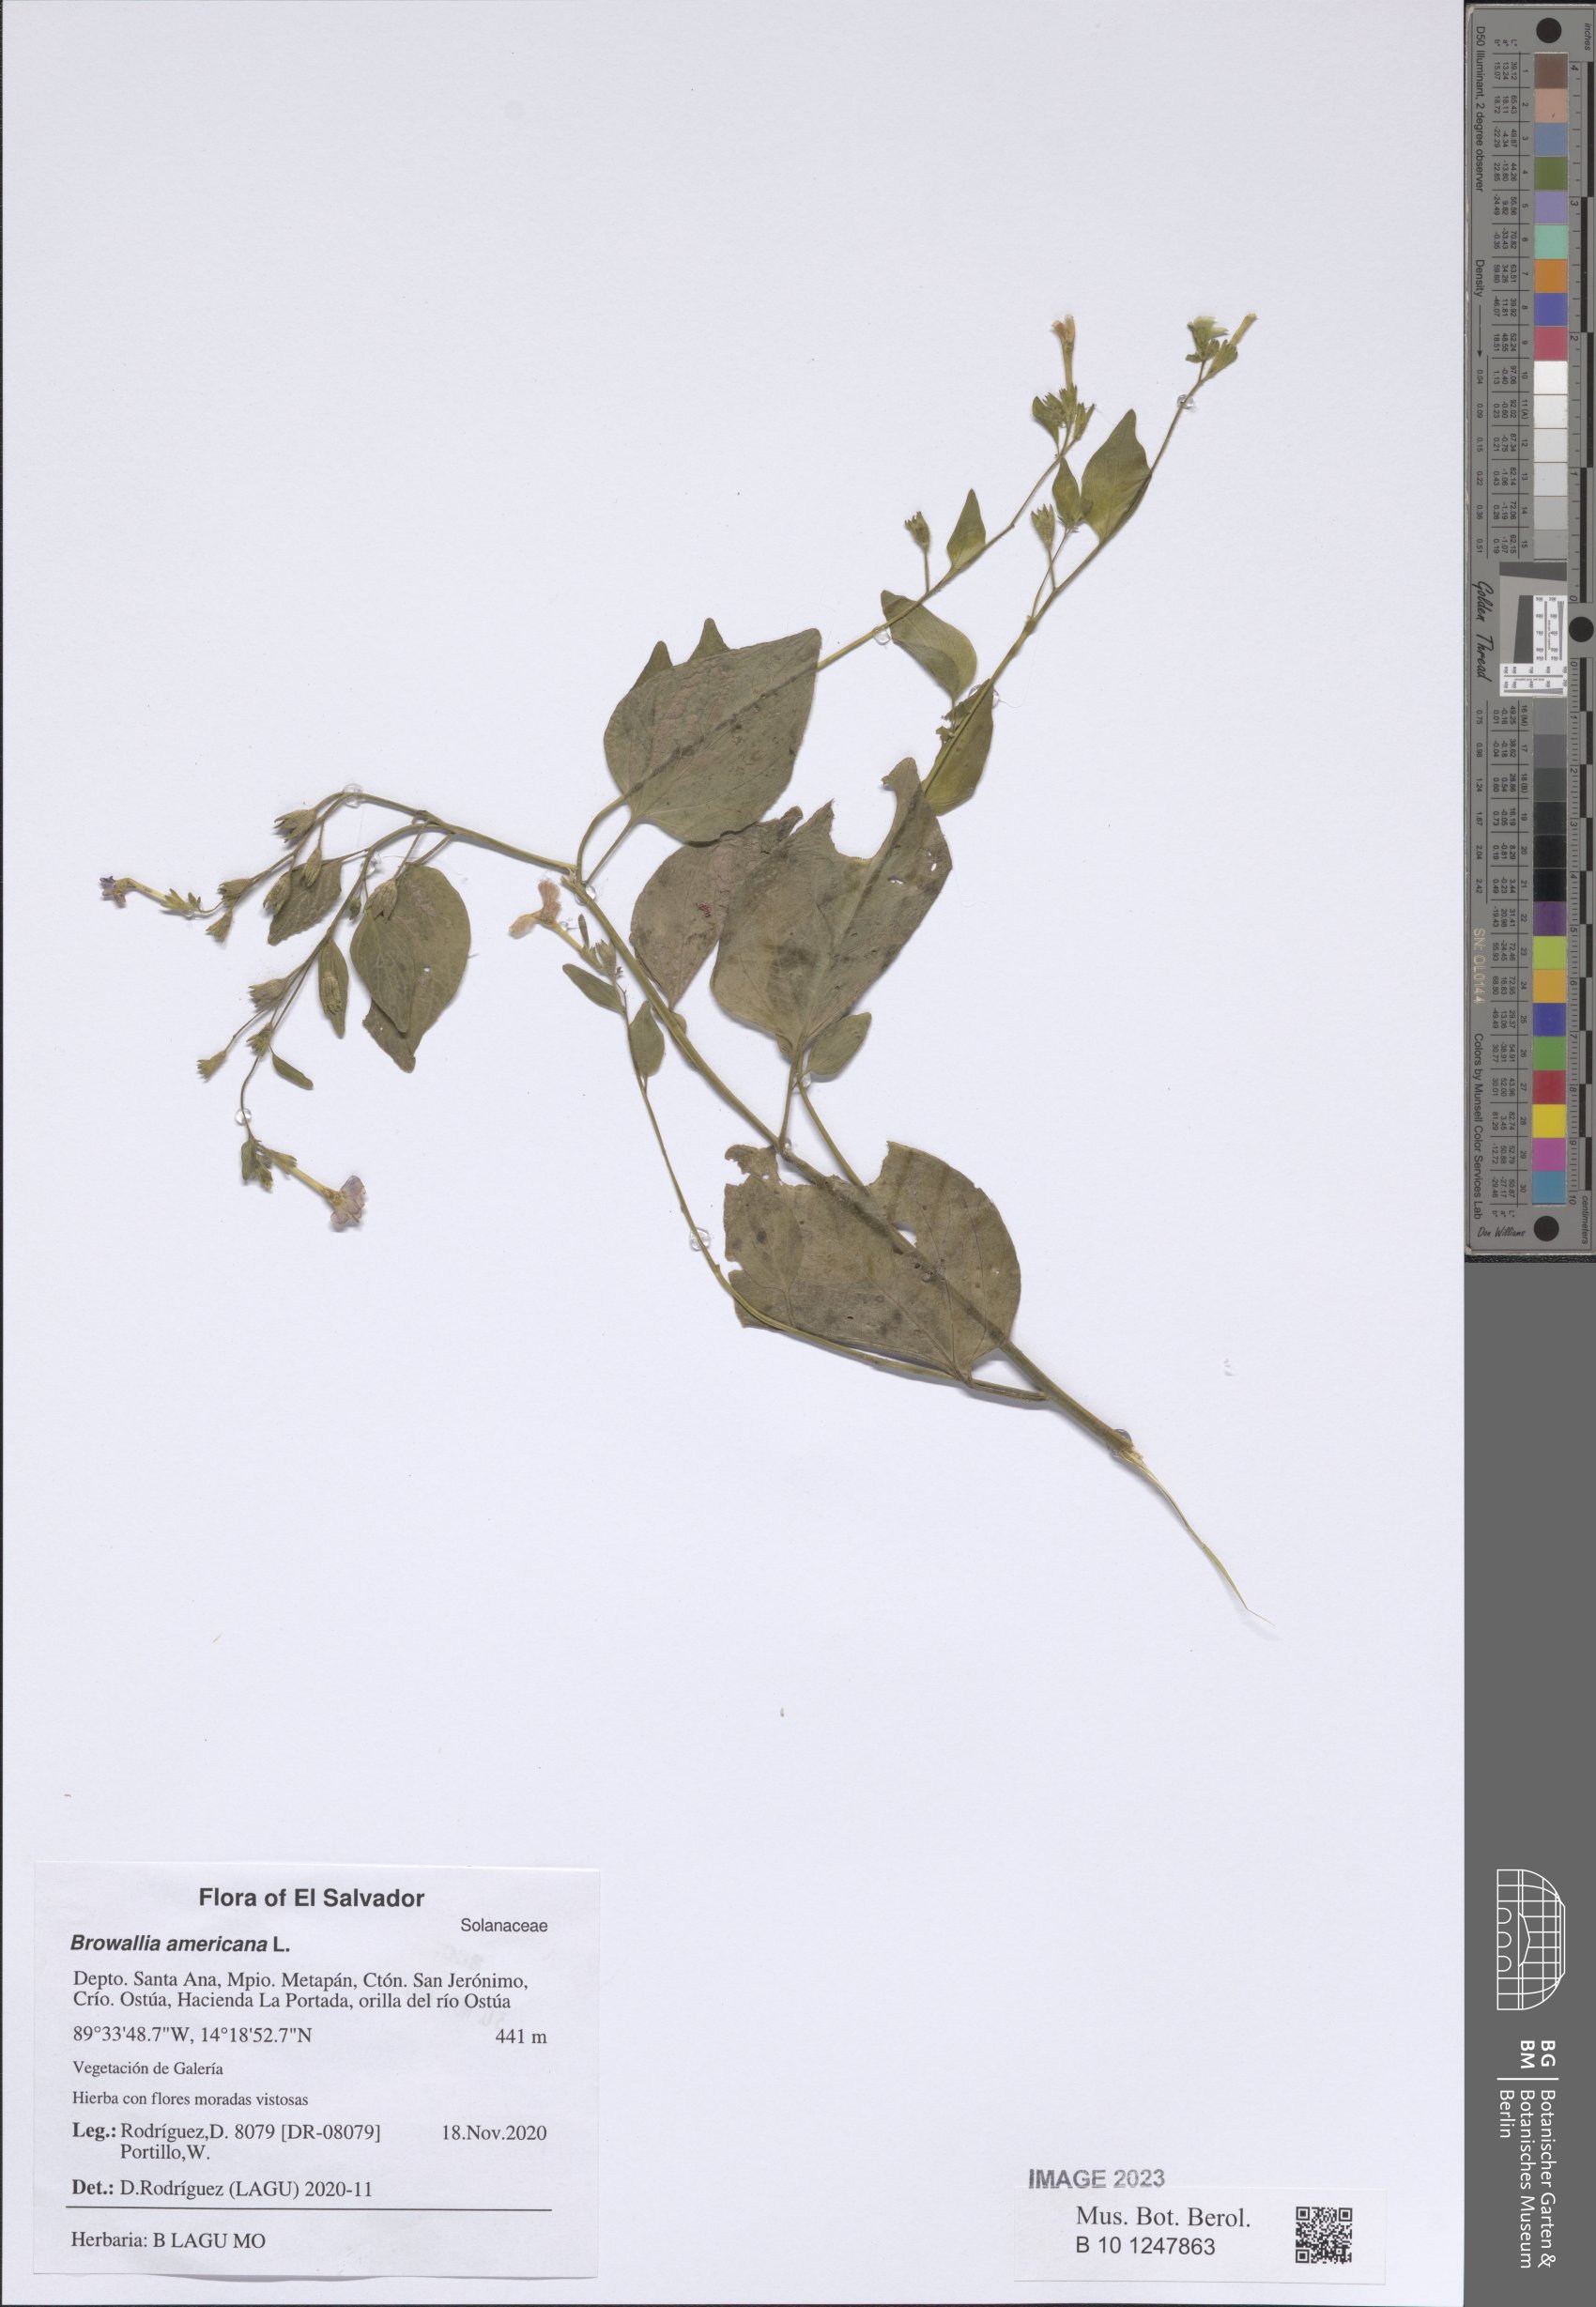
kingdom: Plantae
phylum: Tracheophyta
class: Magnoliopsida
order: Solanales
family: Solanaceae
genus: Browallia
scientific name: Browallia americana
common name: Jamaican forget-me-not
